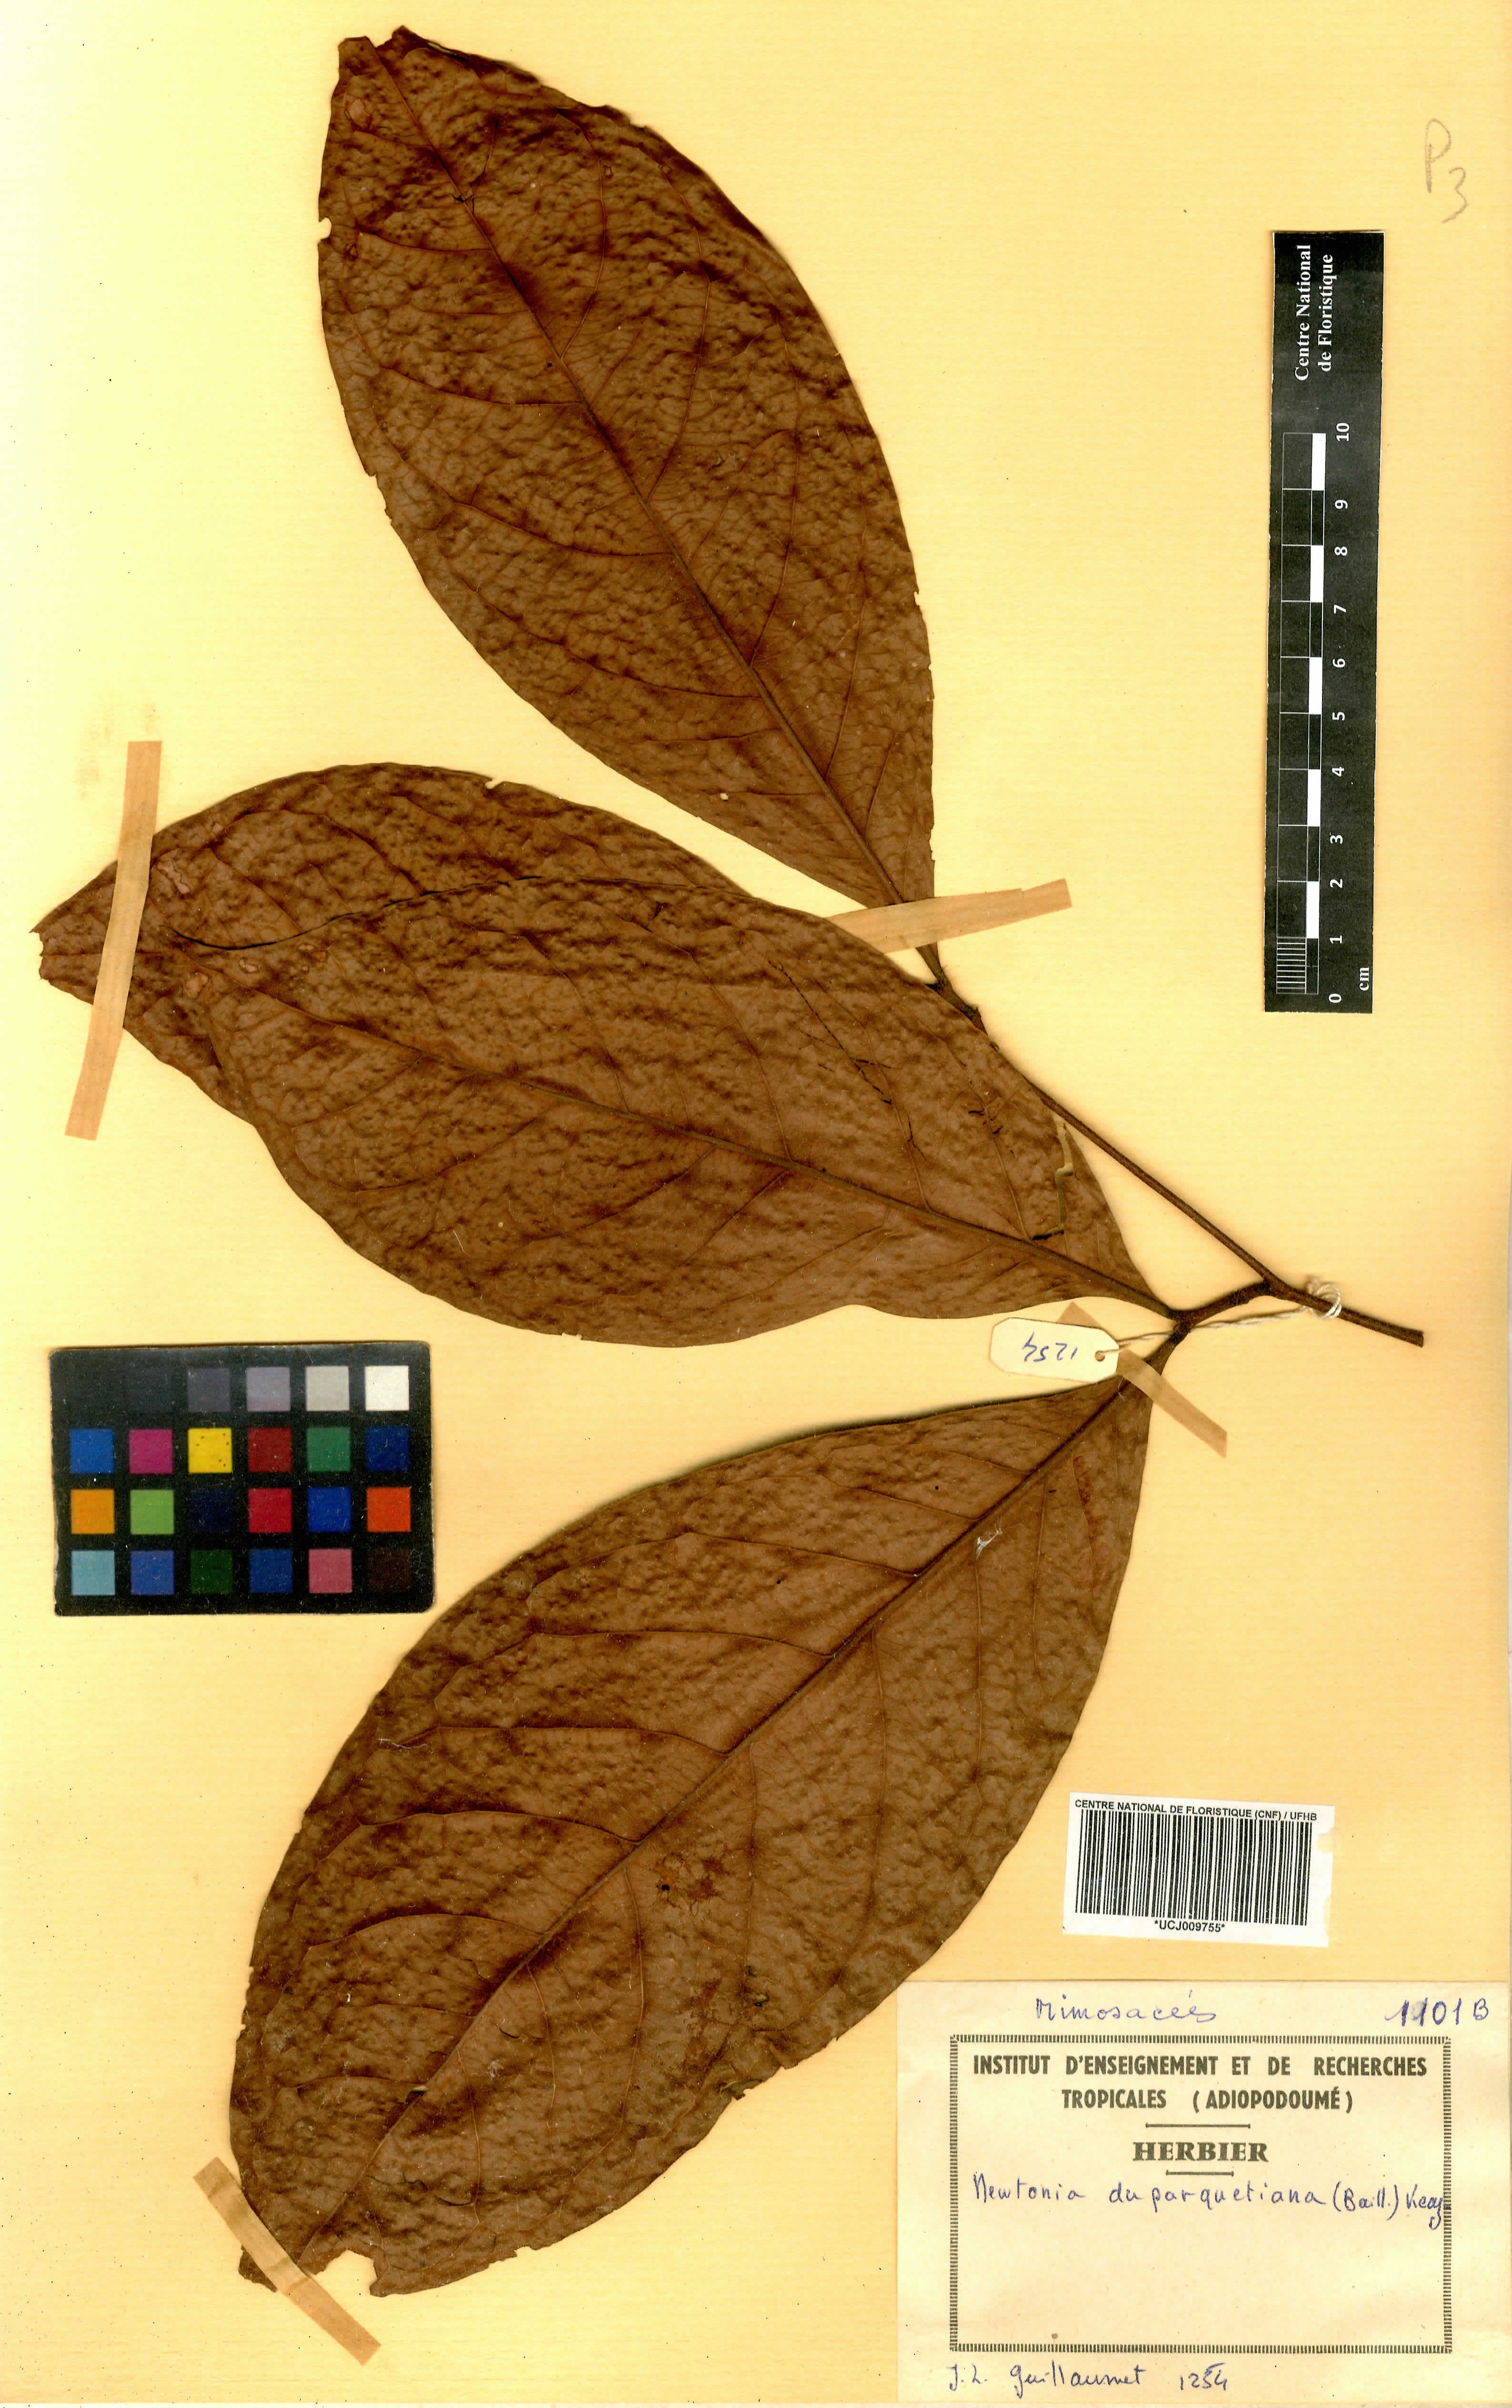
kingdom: Plantae
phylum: Tracheophyta
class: Magnoliopsida
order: Fabales
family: Fabaceae
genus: Newtonia
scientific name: Newtonia duparquetiana
